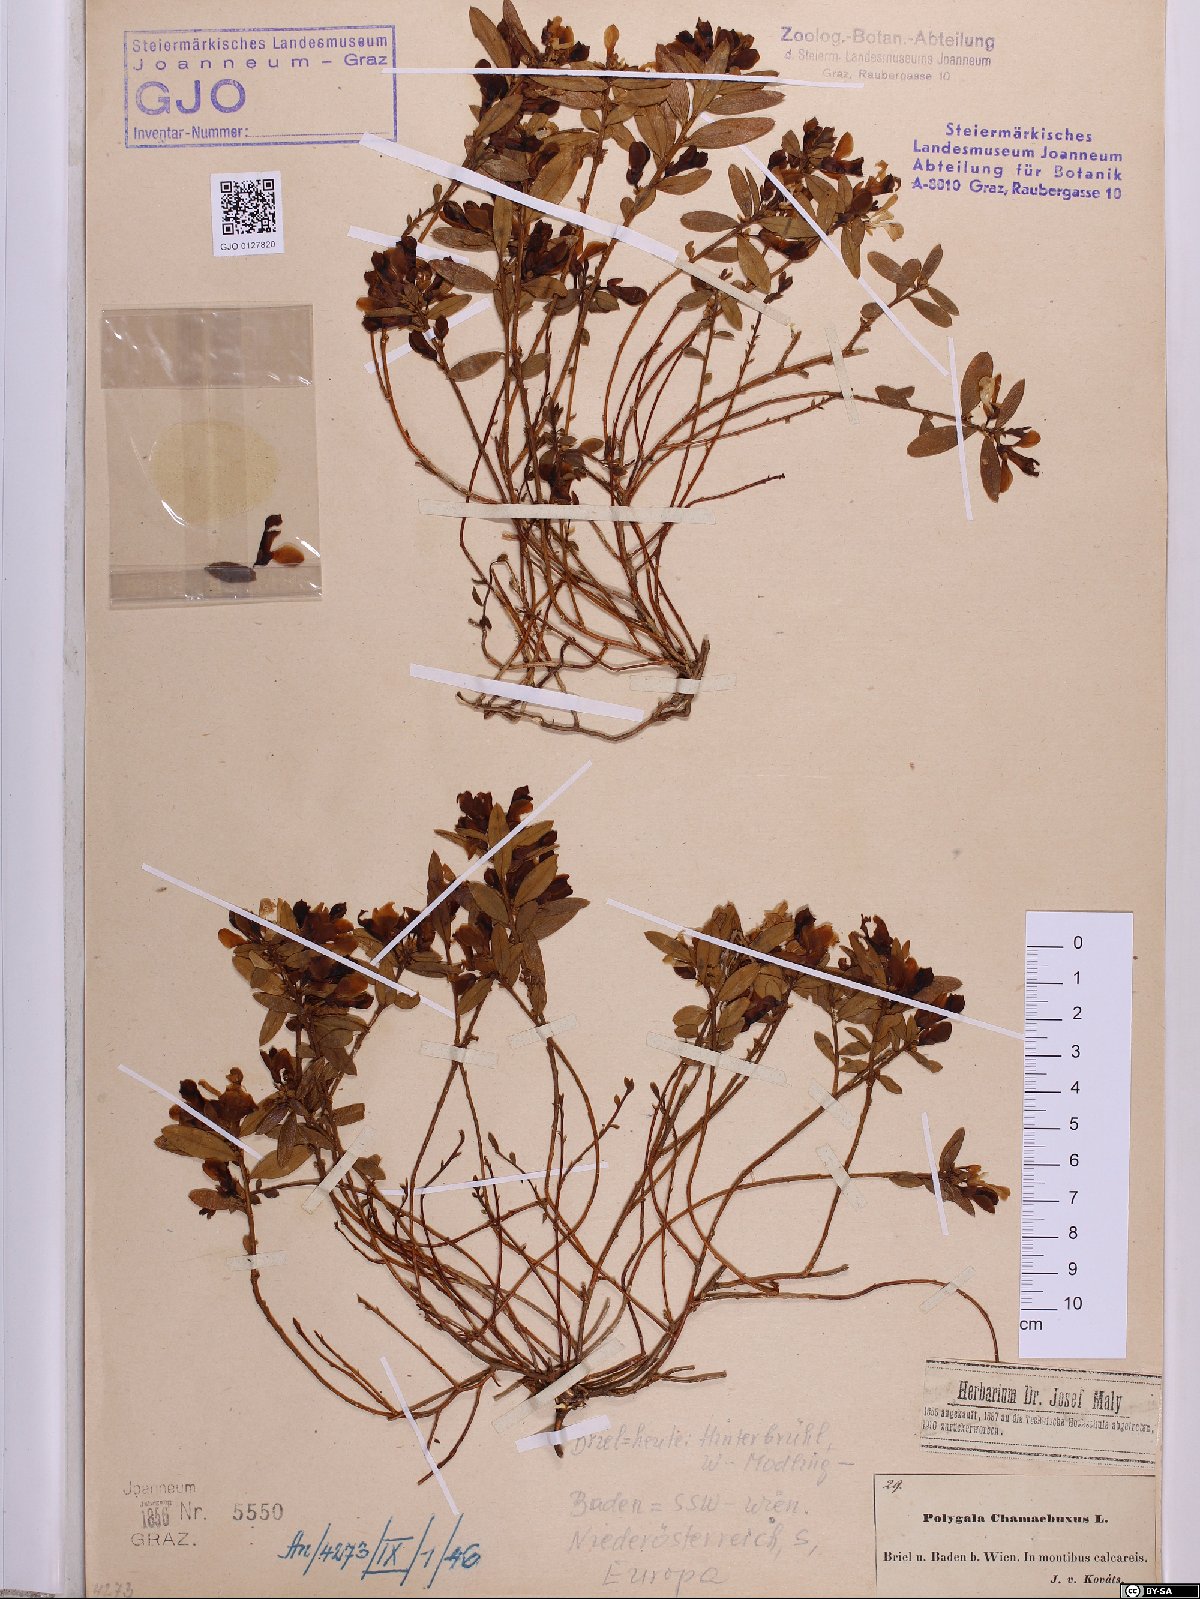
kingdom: Plantae
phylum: Tracheophyta
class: Magnoliopsida
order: Fabales
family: Polygalaceae
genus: Polygaloides
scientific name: Polygaloides chamaebuxus
